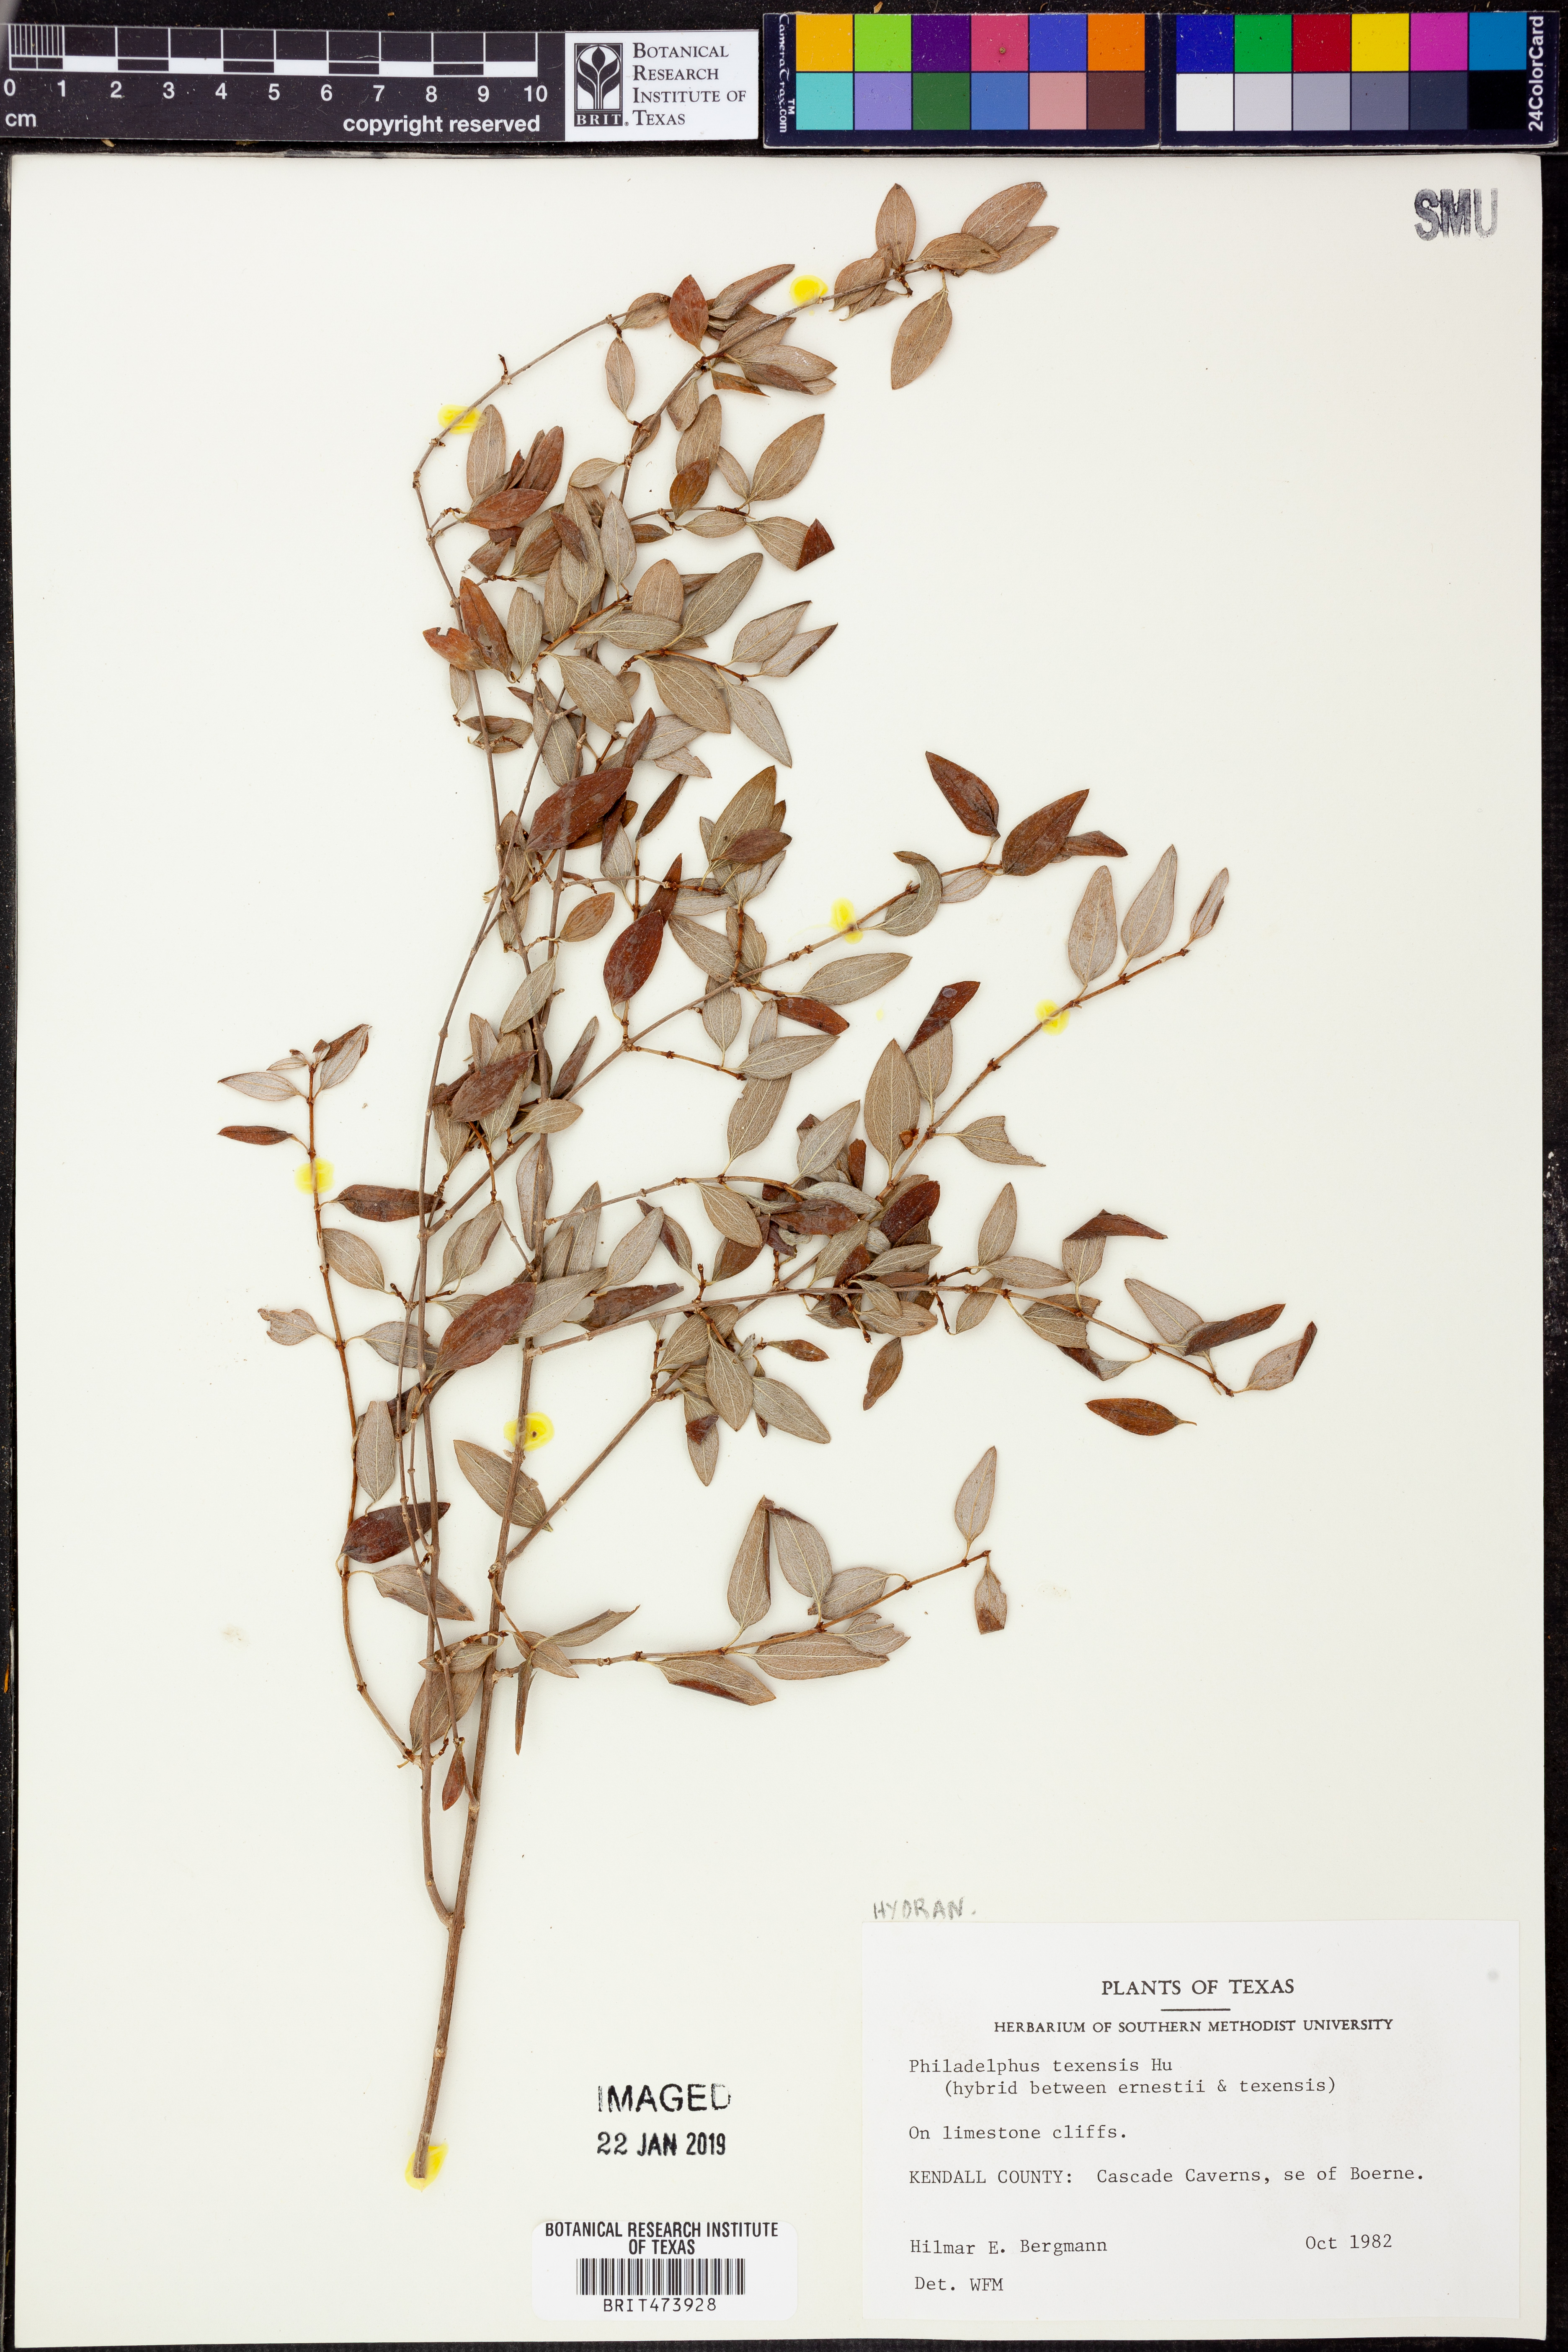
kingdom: Plantae
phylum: Tracheophyta
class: Magnoliopsida
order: Cornales
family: Hydrangeaceae
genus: Philadelphus
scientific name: Philadelphus texensis
